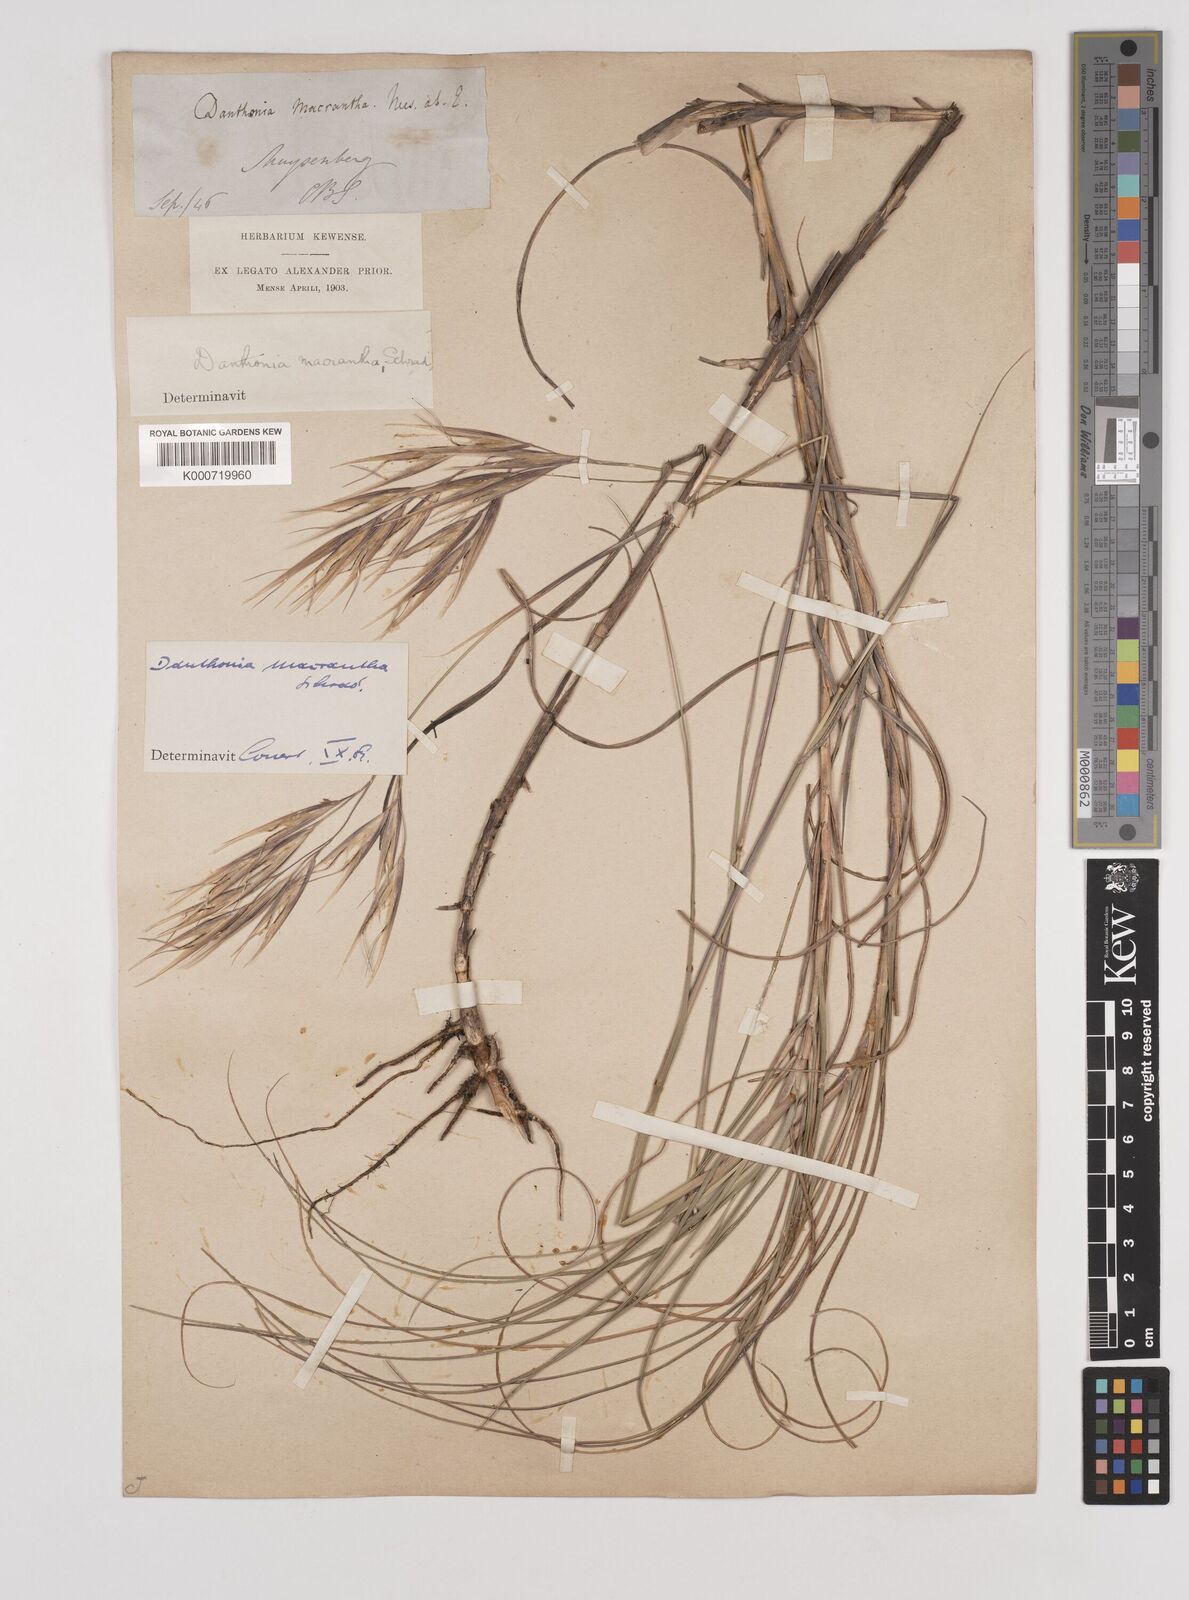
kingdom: Plantae
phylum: Tracheophyta
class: Liliopsida
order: Poales
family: Poaceae
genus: Pseudopentameris
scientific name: Pseudopentameris macrantha
